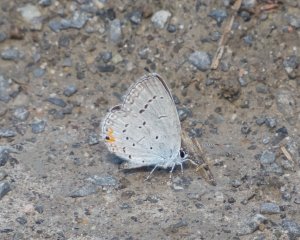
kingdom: Animalia
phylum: Arthropoda
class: Insecta
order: Lepidoptera
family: Lycaenidae
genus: Elkalyce
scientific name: Elkalyce comyntas
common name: Eastern Tailed-Blue
